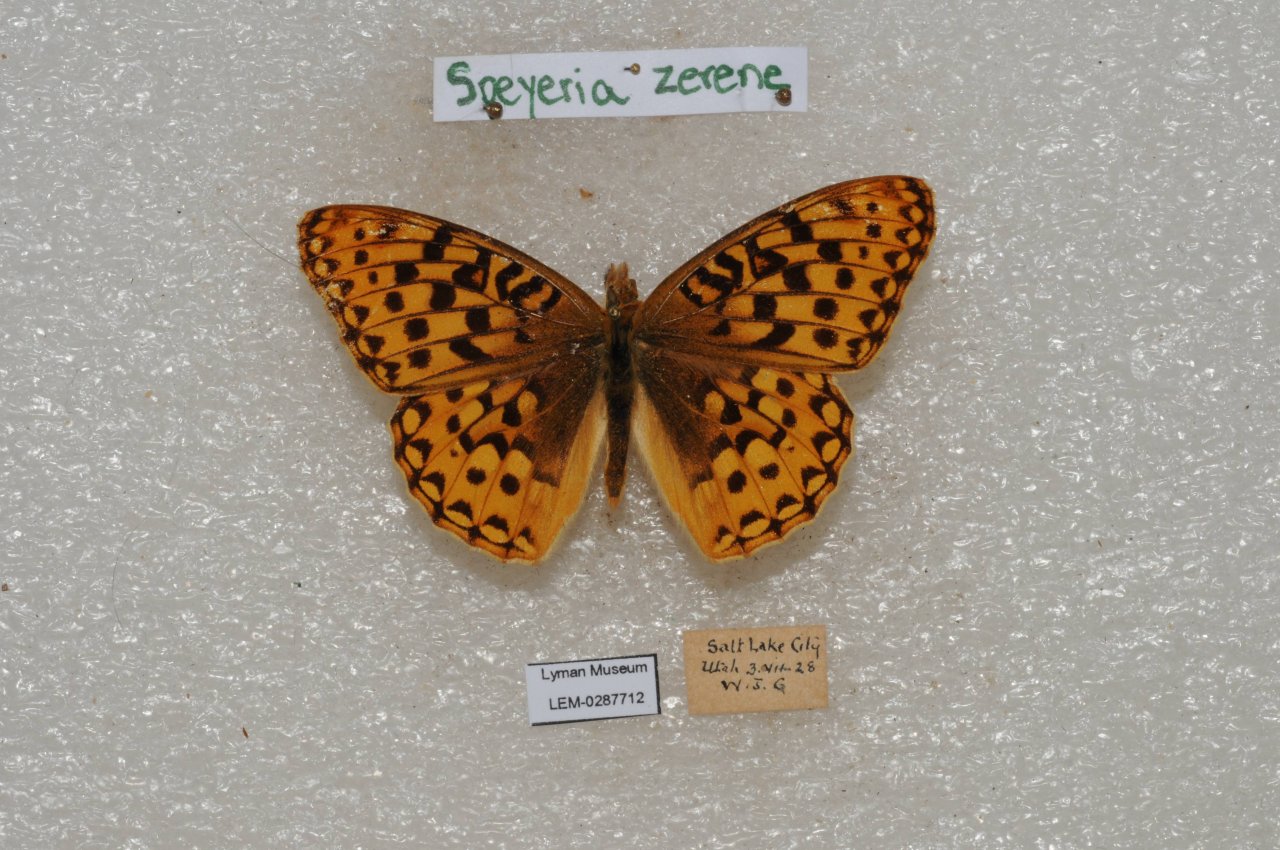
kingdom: Animalia
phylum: Arthropoda
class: Insecta
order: Lepidoptera
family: Nymphalidae
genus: Speyeria
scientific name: Speyeria zerene
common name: Zerene Fritillary
